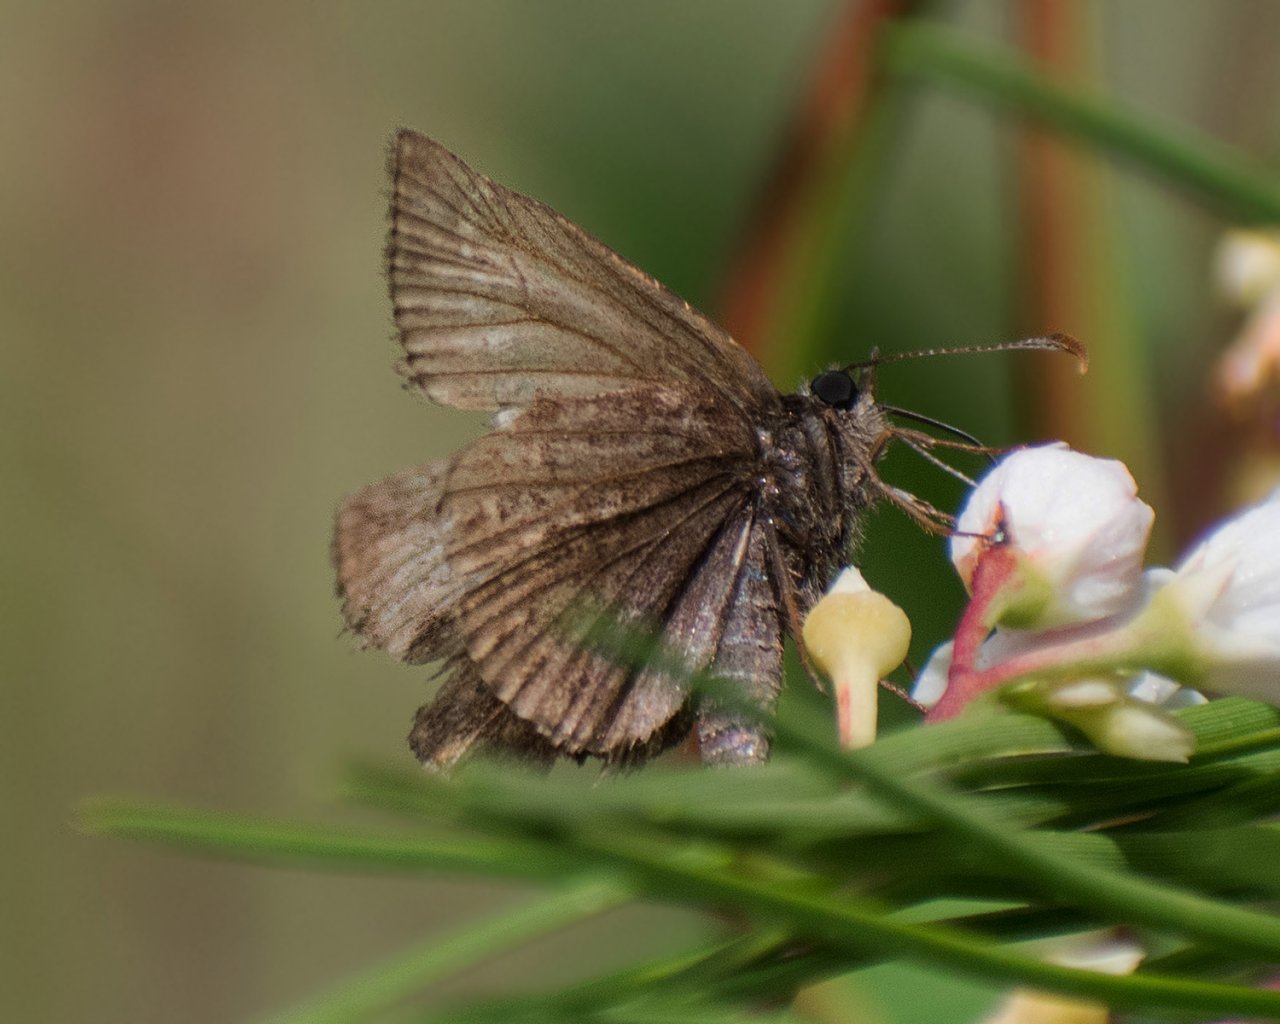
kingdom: Animalia
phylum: Arthropoda
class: Insecta
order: Lepidoptera
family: Hesperiidae
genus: Erynnis
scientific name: Erynnis
